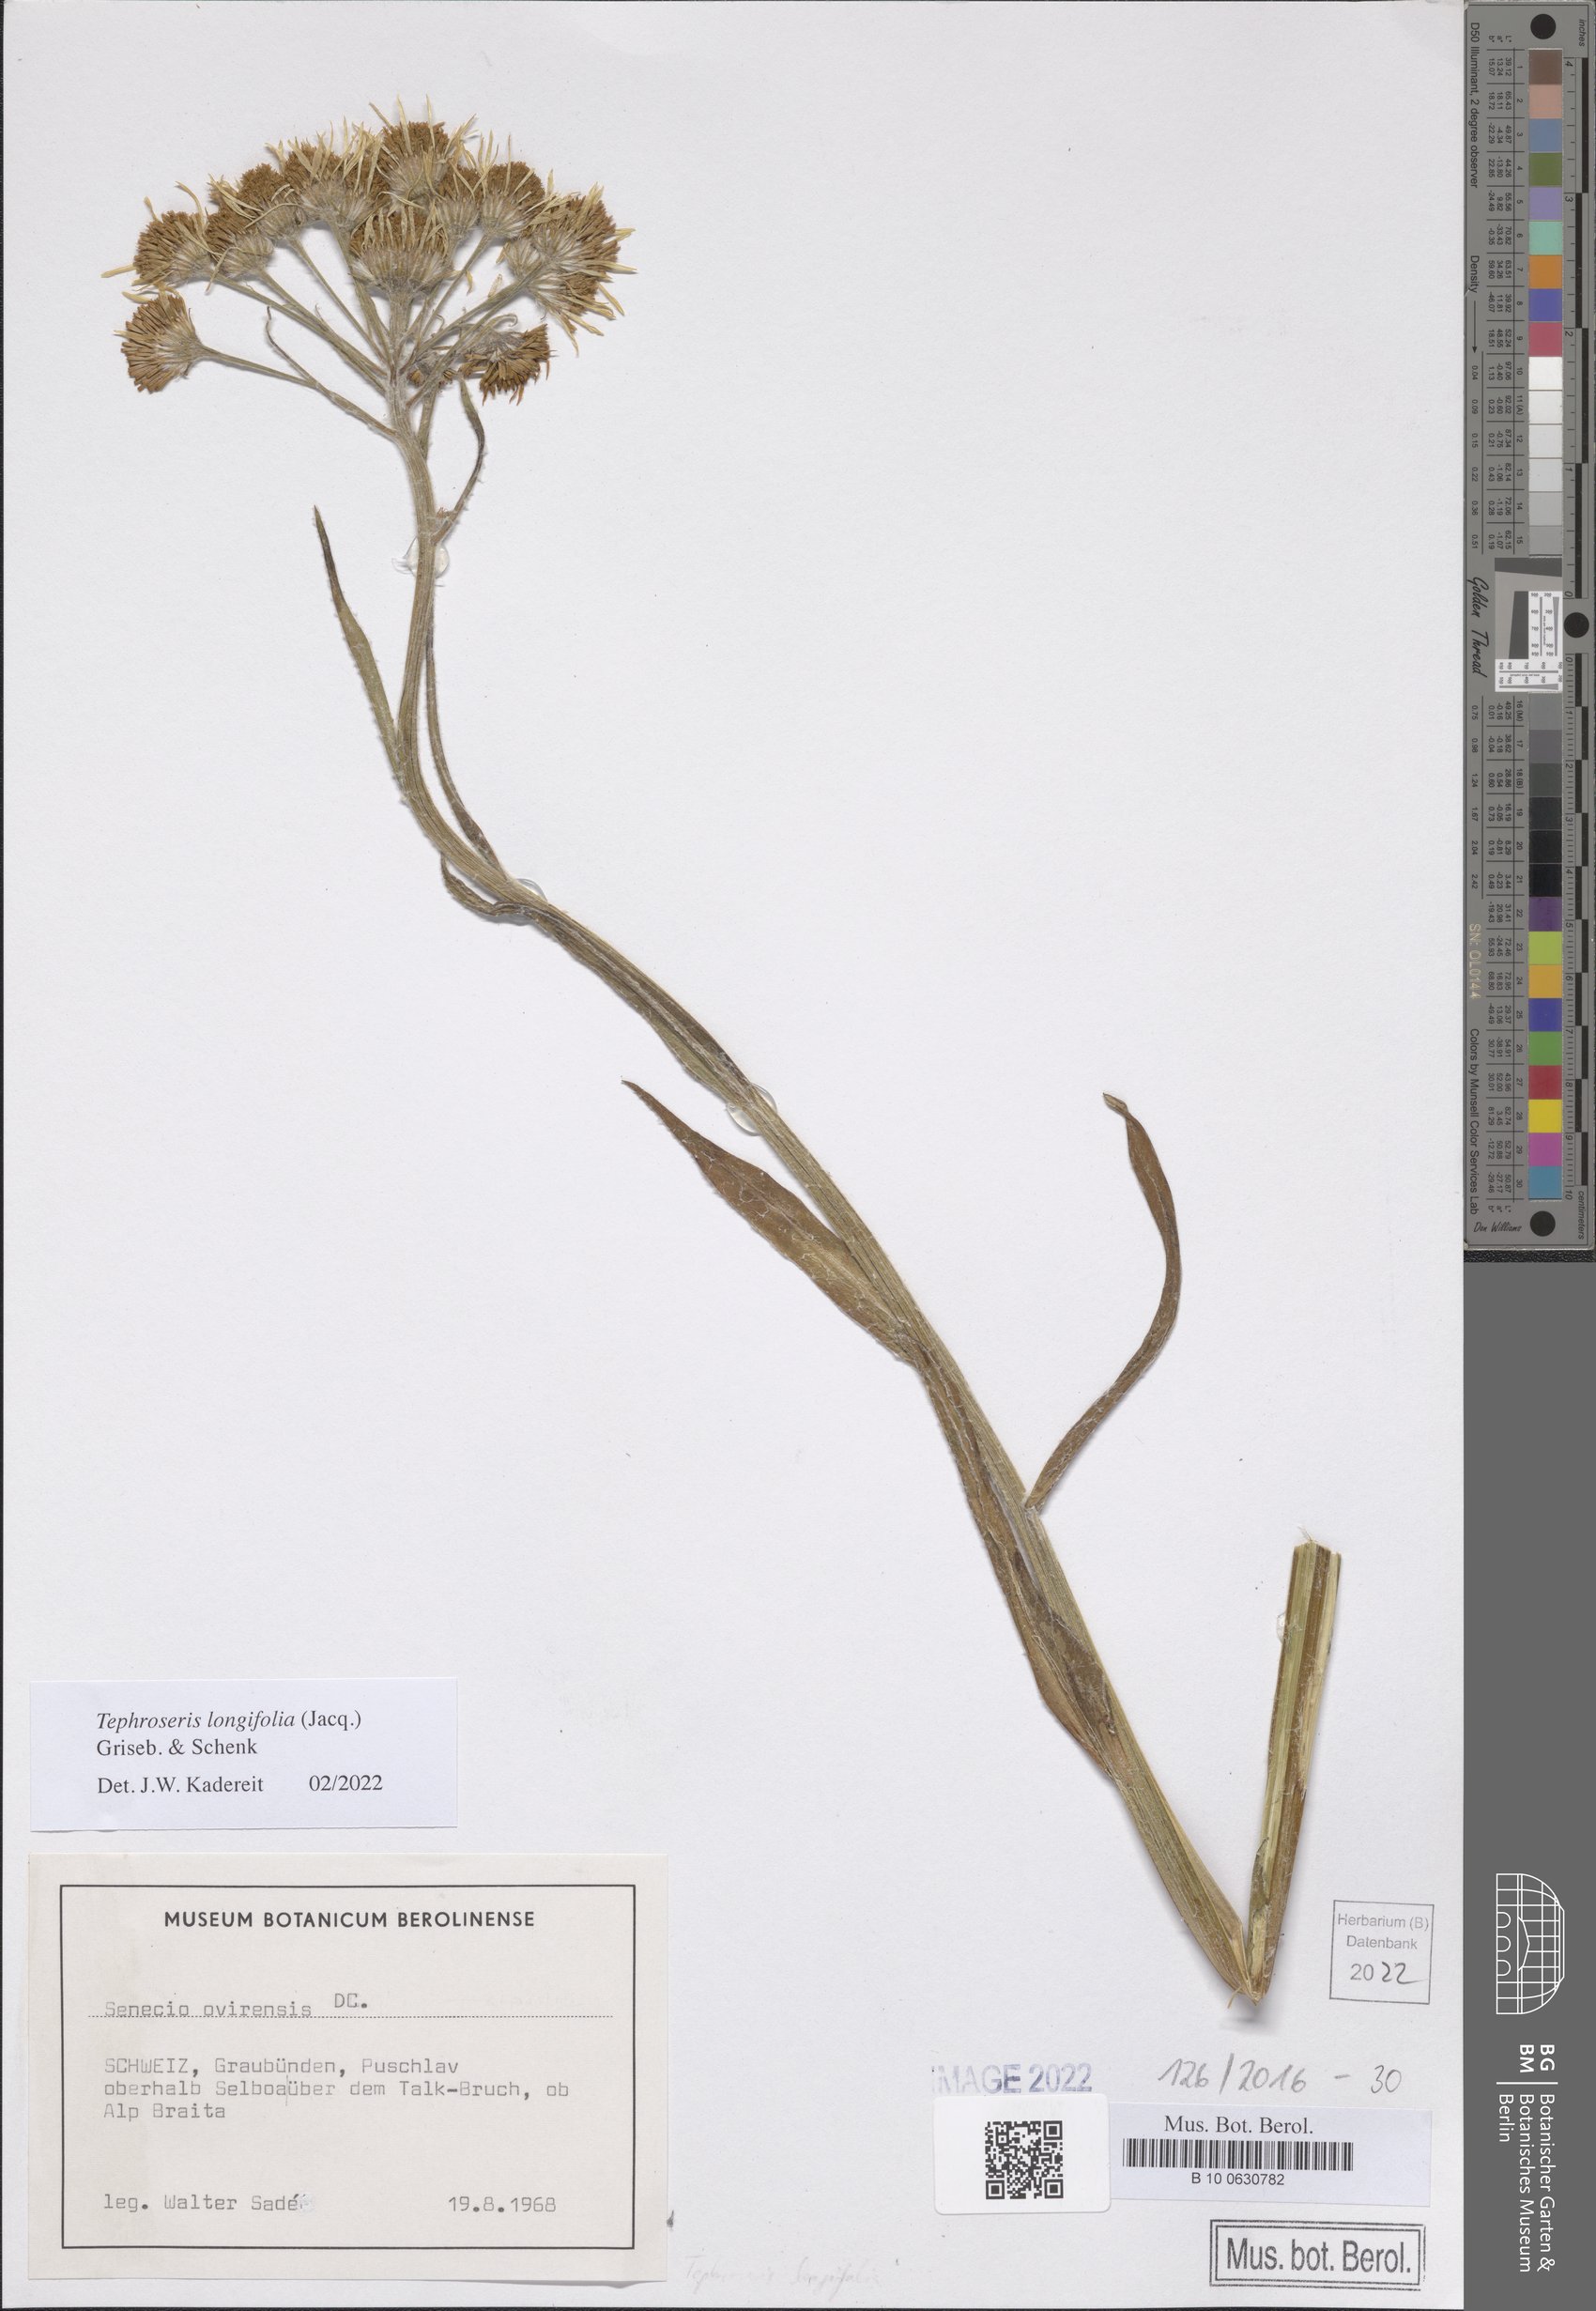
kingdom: Plantae
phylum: Tracheophyta
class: Magnoliopsida
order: Asterales
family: Asteraceae
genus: Tephroseris
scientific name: Tephroseris longifolia
